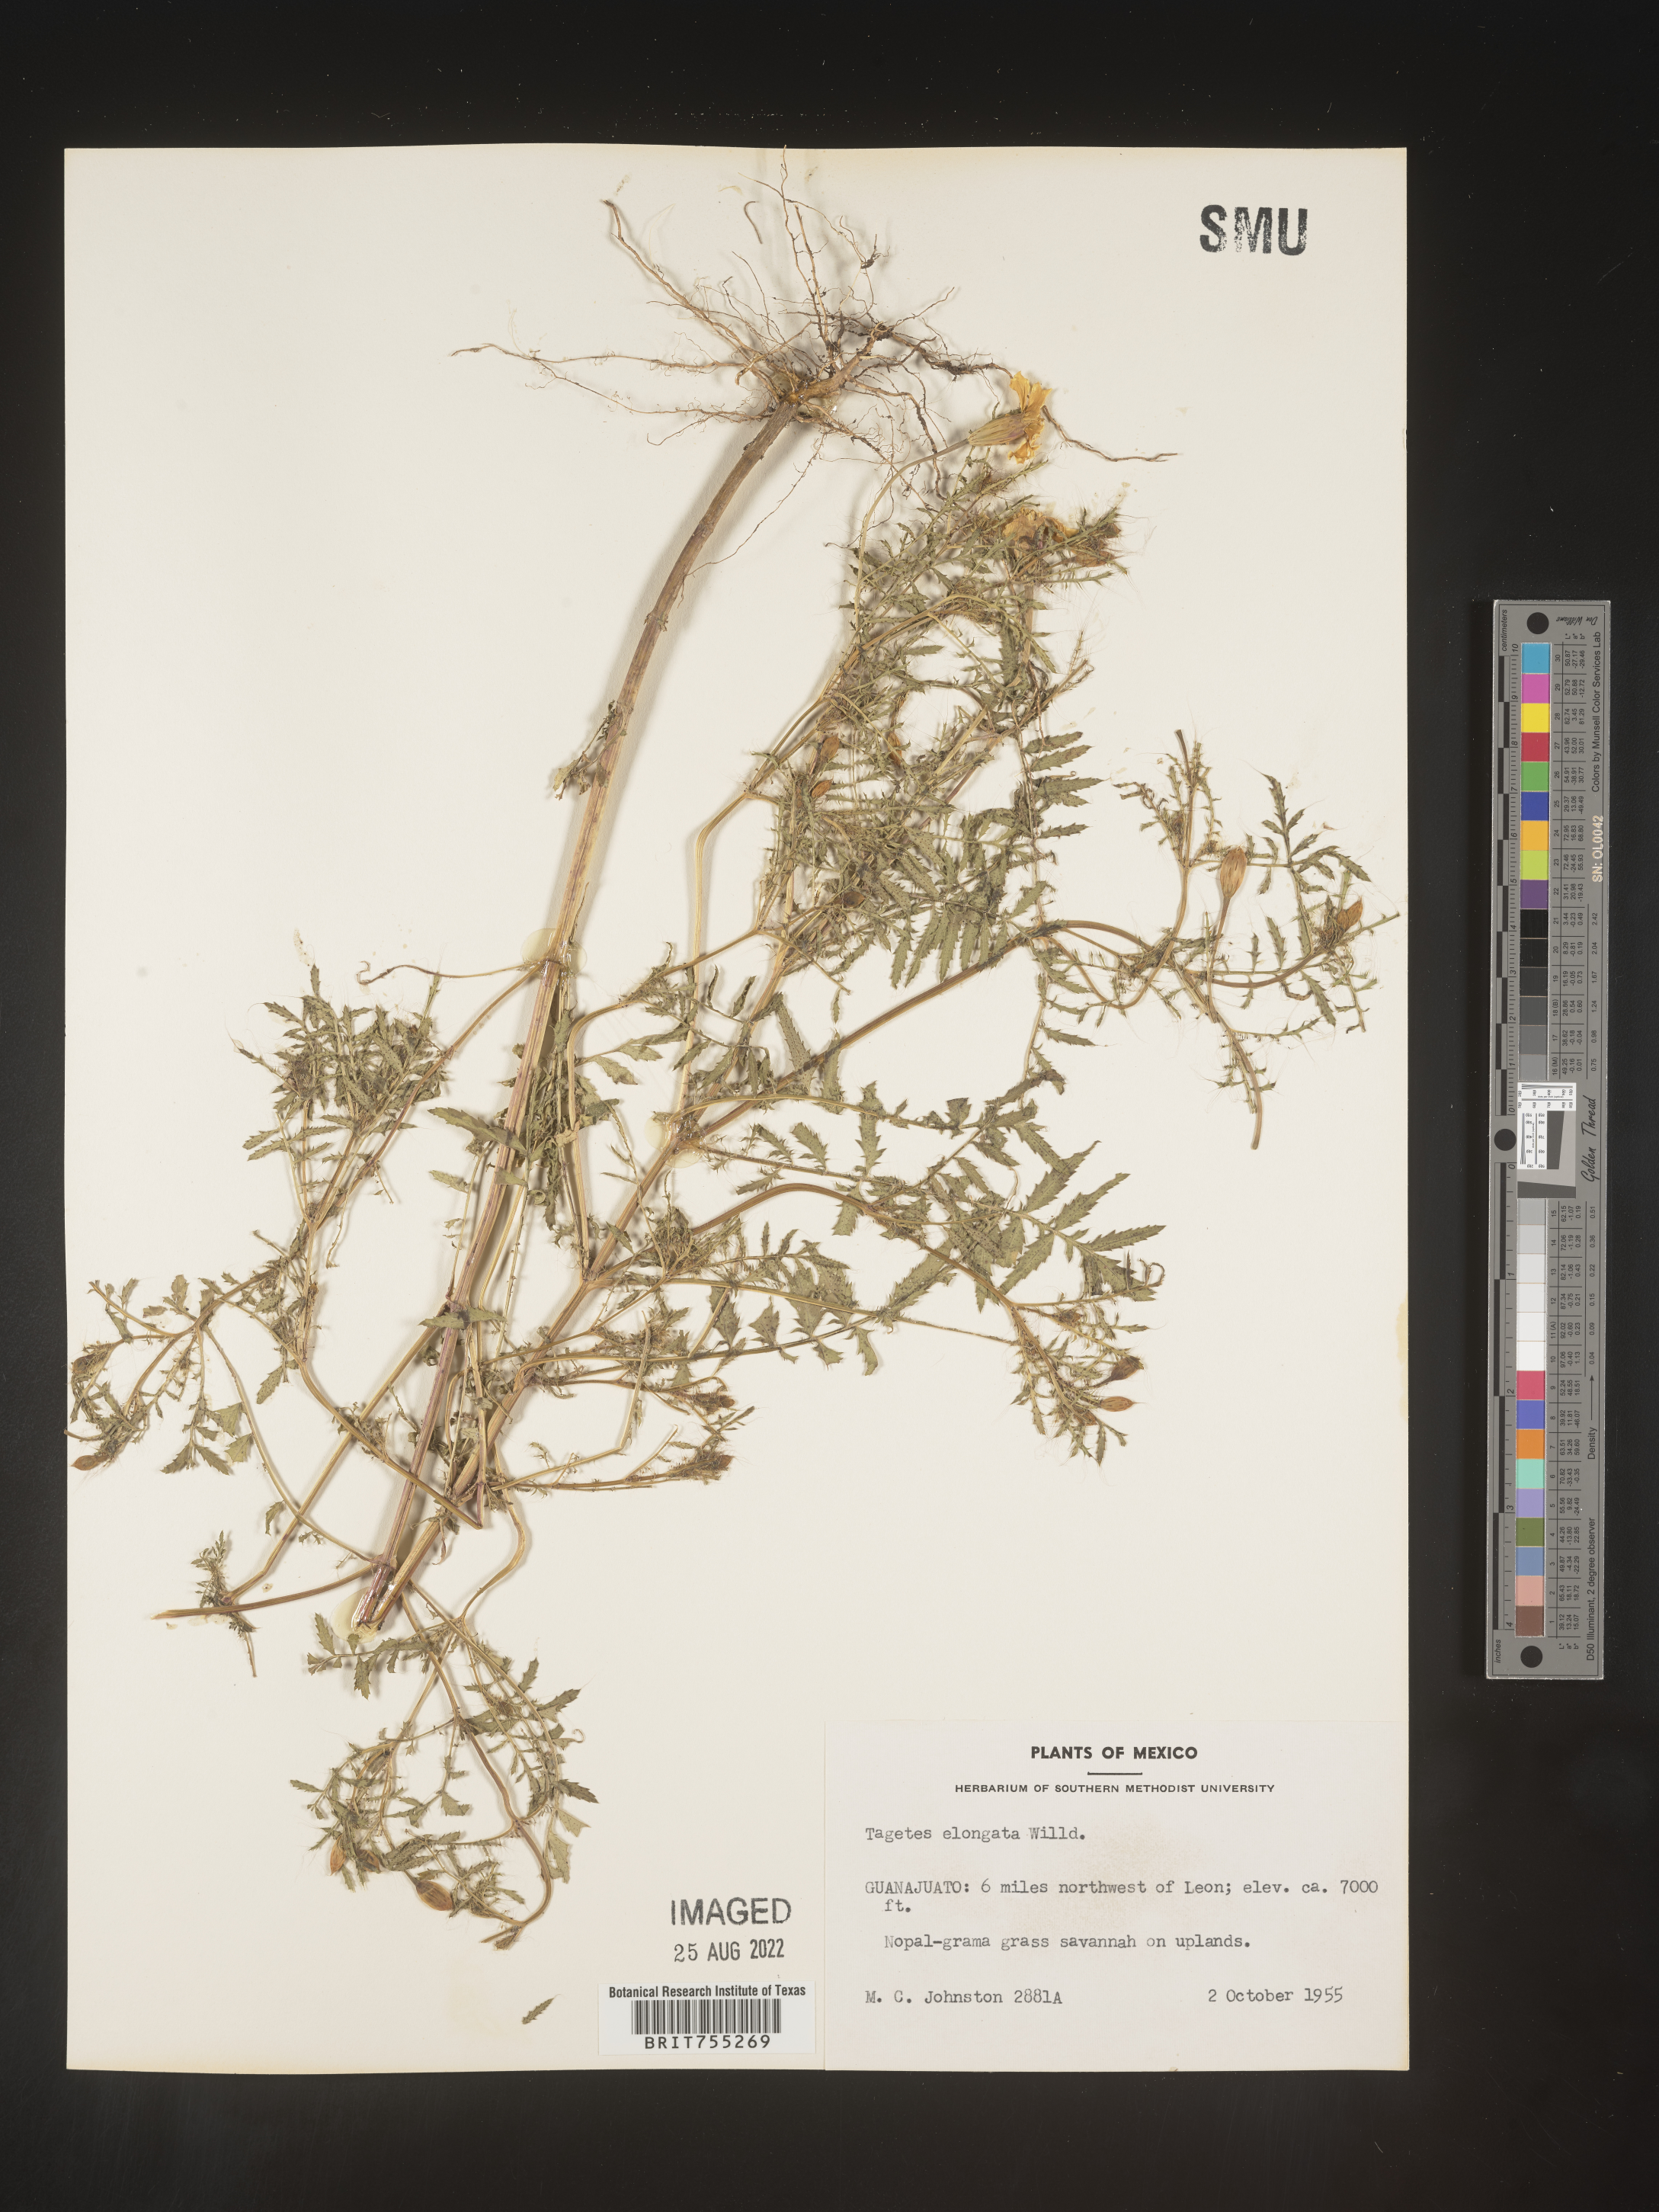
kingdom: Plantae
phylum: Tracheophyta
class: Magnoliopsida
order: Asterales
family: Asteraceae
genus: Tagetes
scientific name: Tagetes
